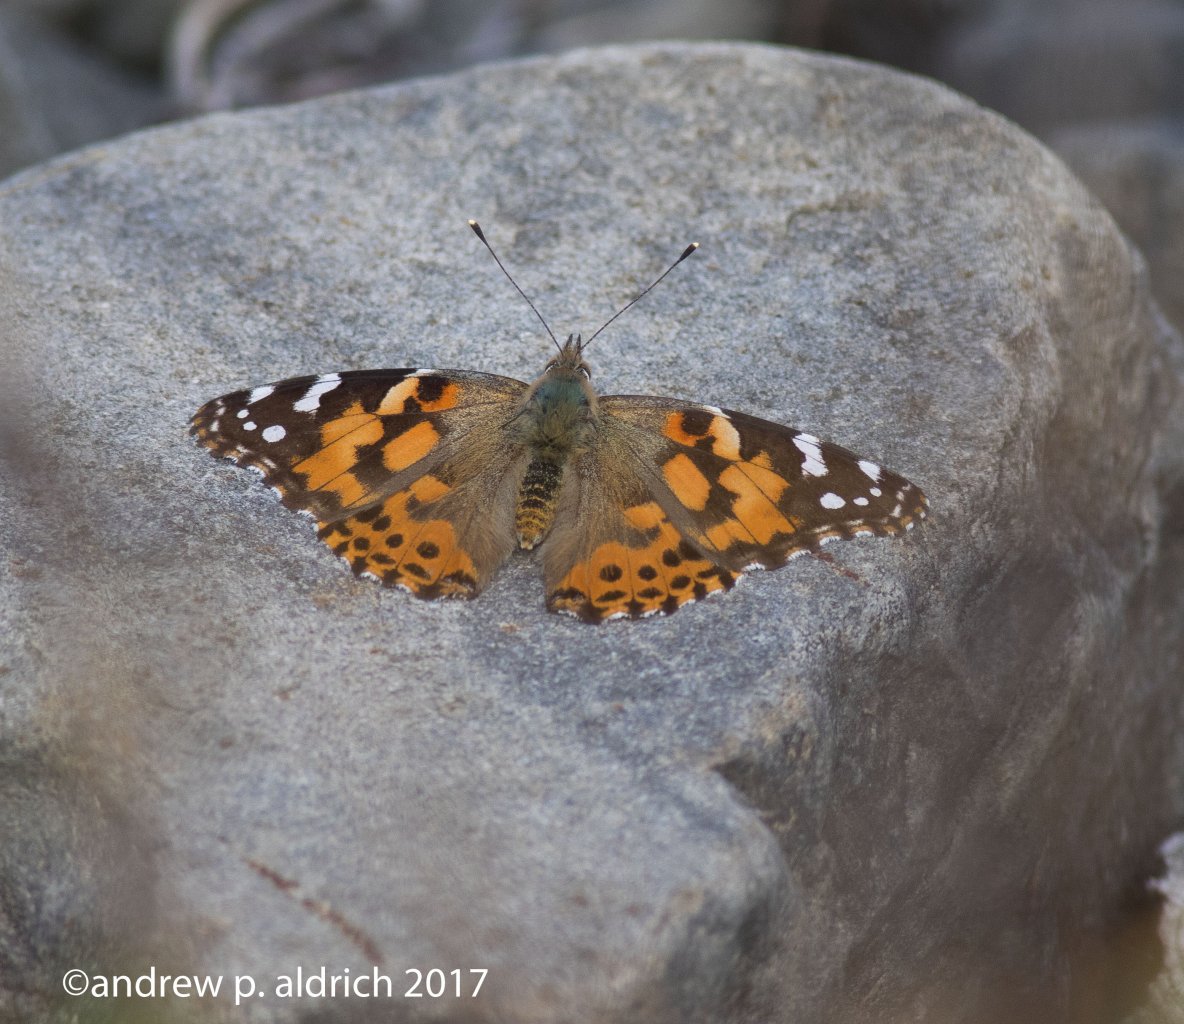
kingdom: Animalia
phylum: Arthropoda
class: Insecta
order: Lepidoptera
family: Nymphalidae
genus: Vanessa
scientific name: Vanessa cardui
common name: Painted Lady
